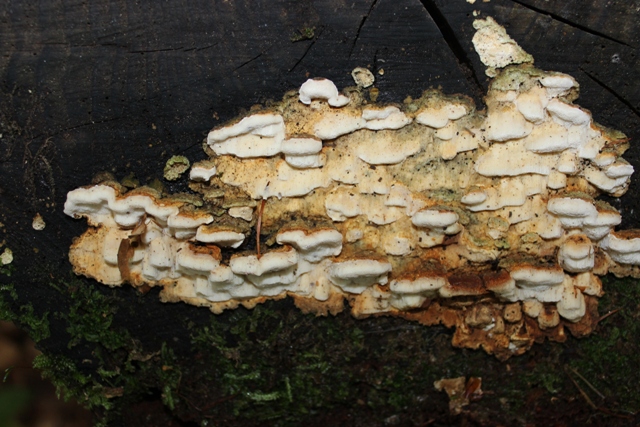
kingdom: Fungi
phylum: Basidiomycota
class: Agaricomycetes
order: Polyporales
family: Fomitopsidaceae
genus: Neoantrodia
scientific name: Neoantrodia serialis
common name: række-sejporesvamp
